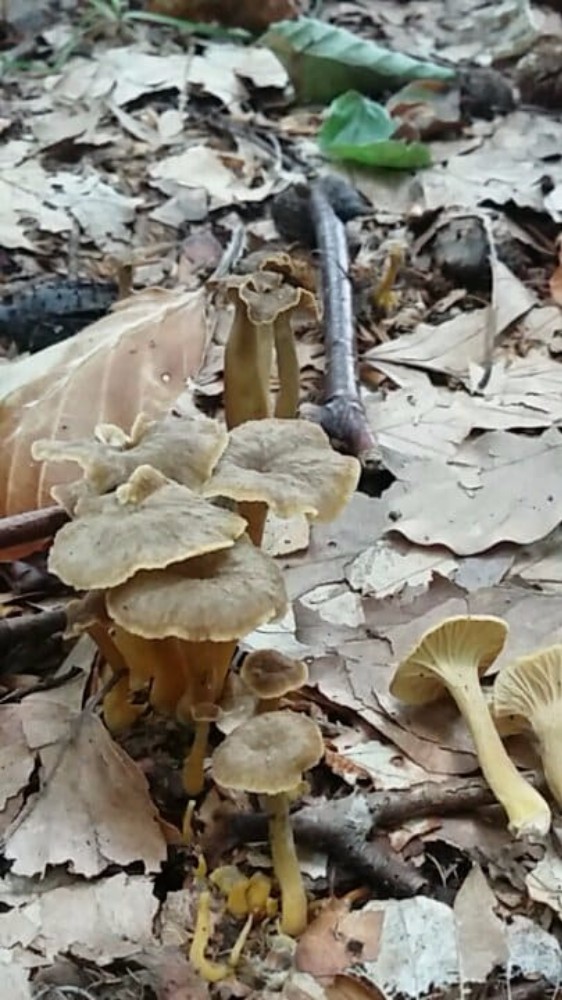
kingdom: Fungi
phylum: Basidiomycota
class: Agaricomycetes
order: Cantharellales
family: Hydnaceae
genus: Craterellus
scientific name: Craterellus tubaeformis
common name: tragt-kantarel
